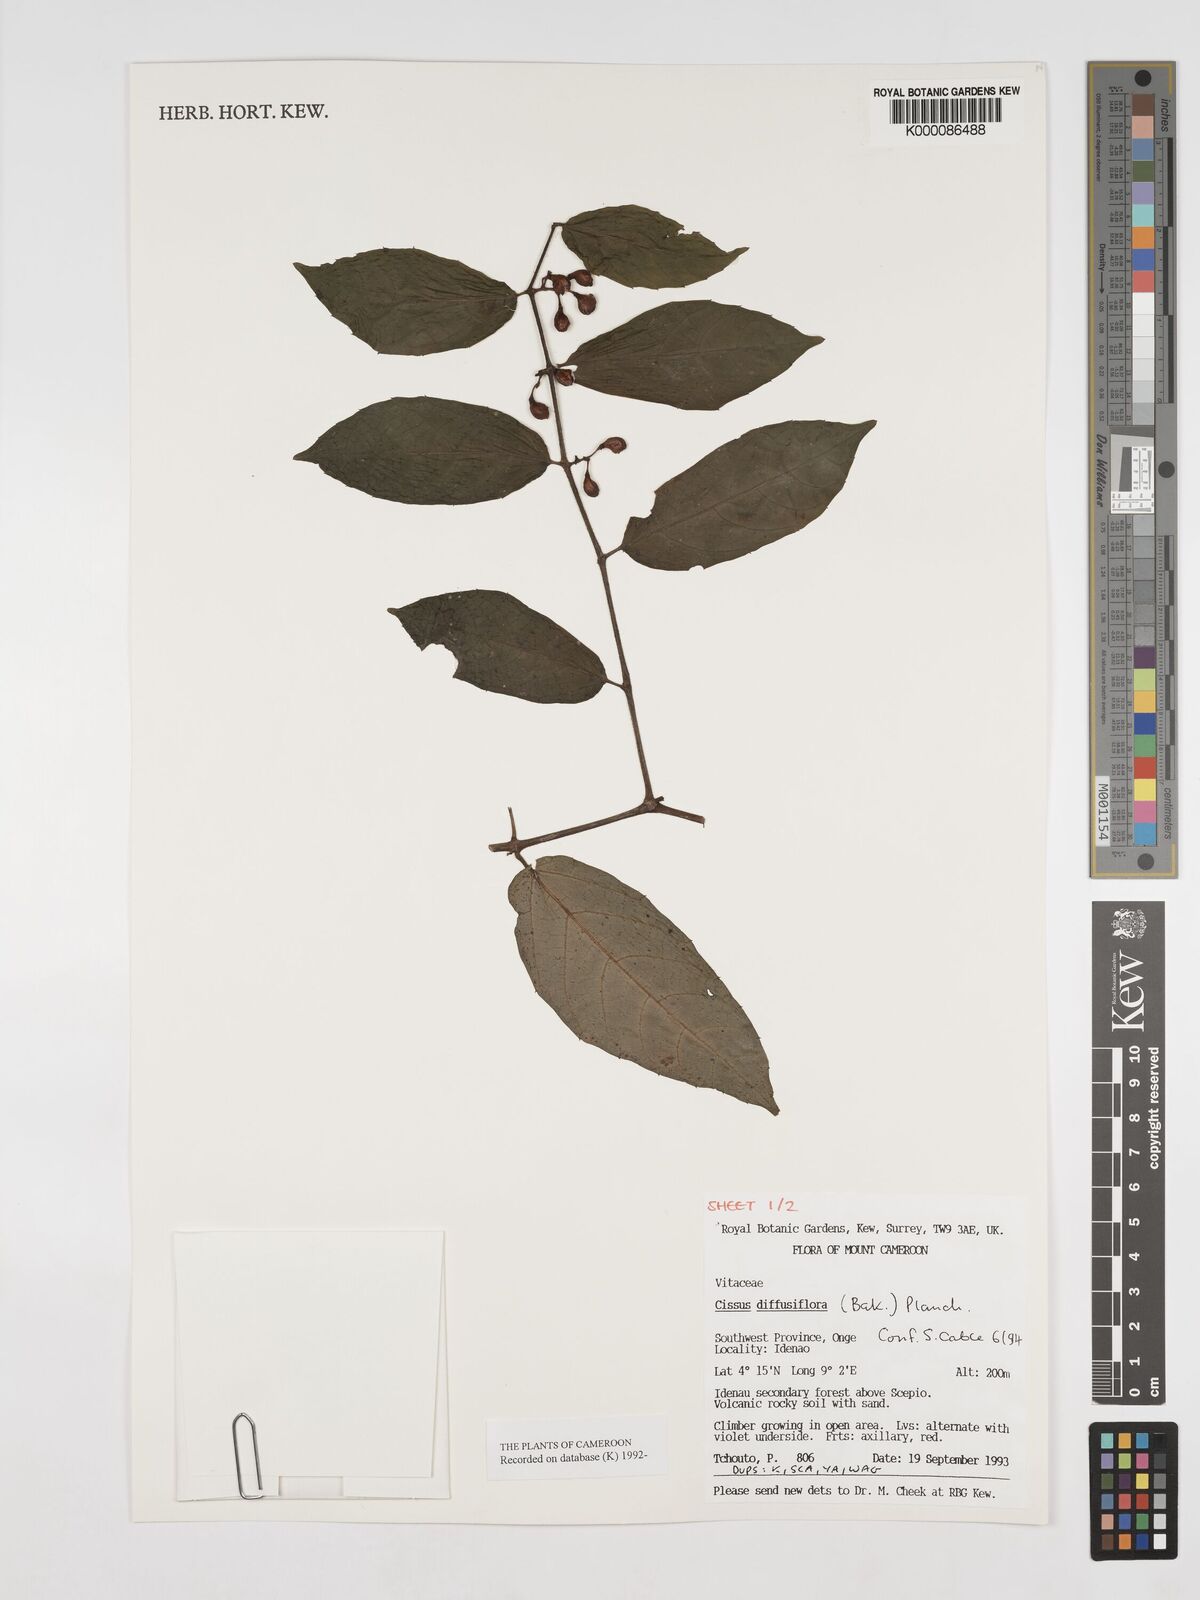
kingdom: Plantae
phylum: Tracheophyta
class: Magnoliopsida
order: Vitales
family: Vitaceae
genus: Cissus
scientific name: Cissus diffusiflora
